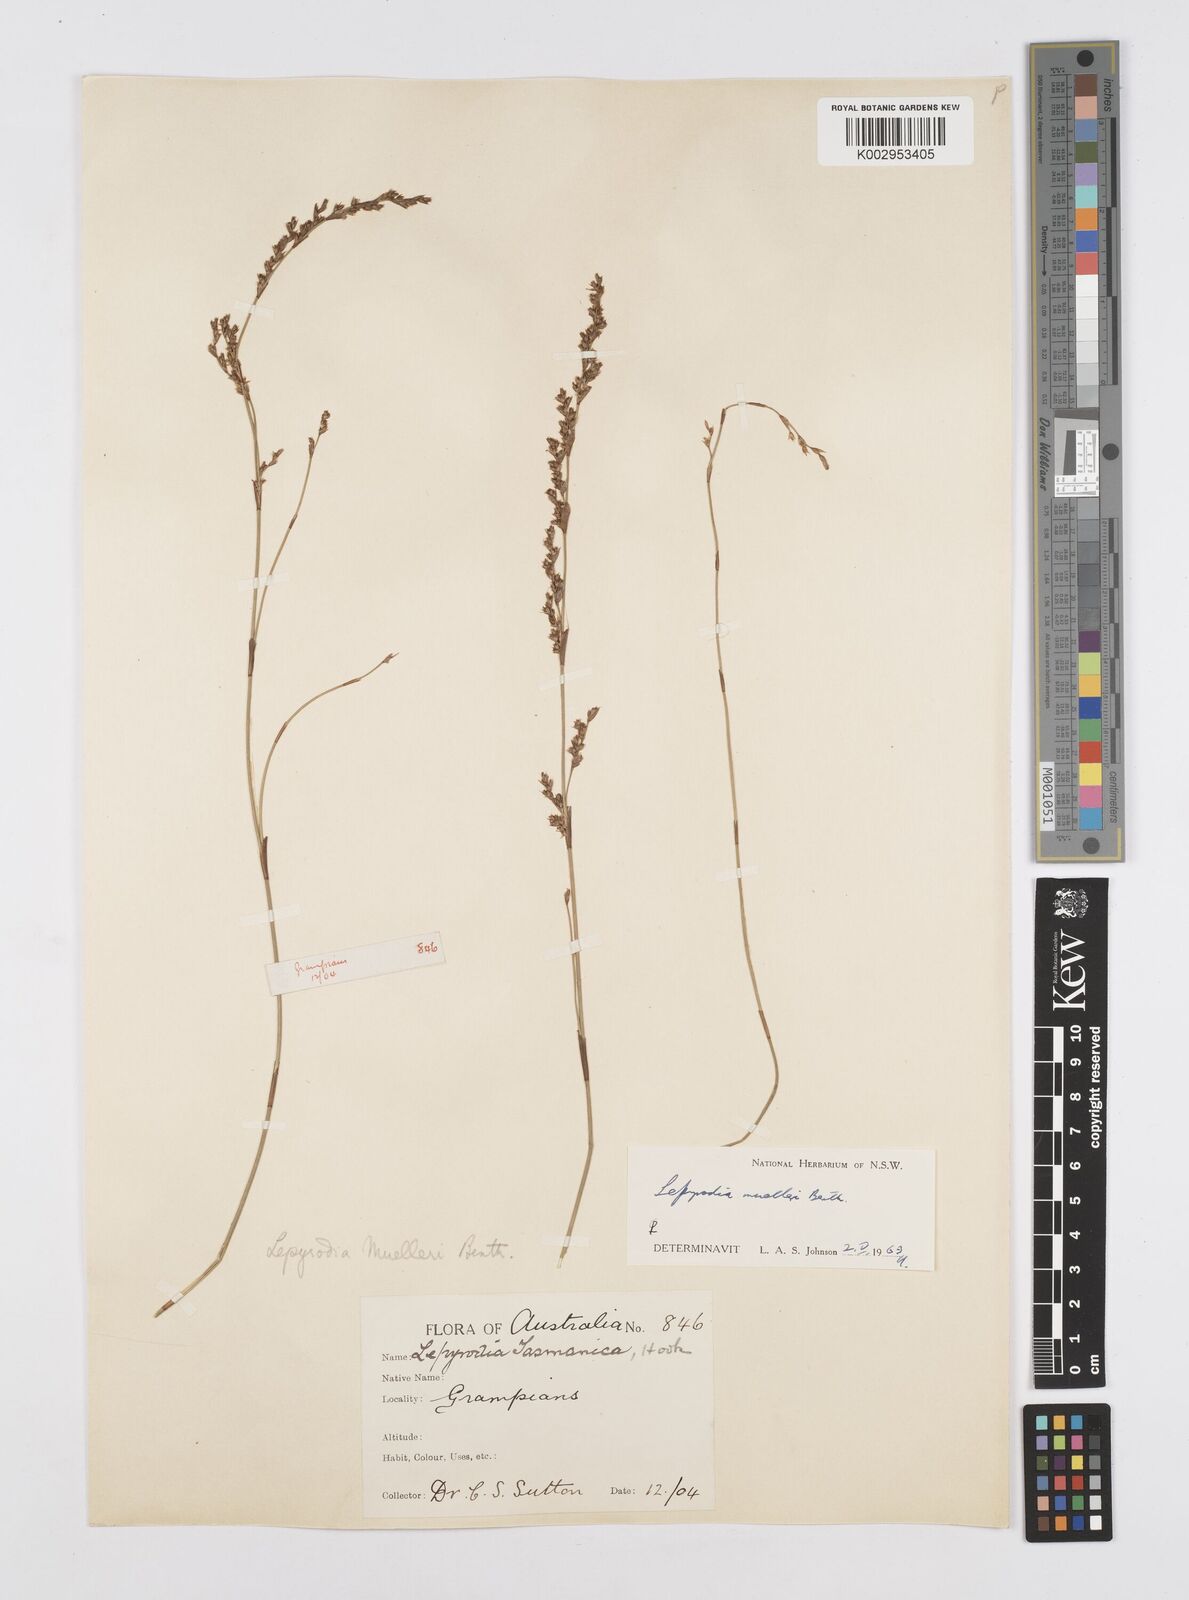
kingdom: Plantae
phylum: Tracheophyta
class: Liliopsida
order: Poales
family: Restionaceae
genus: Lepyrodia
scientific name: Lepyrodia muelleri
